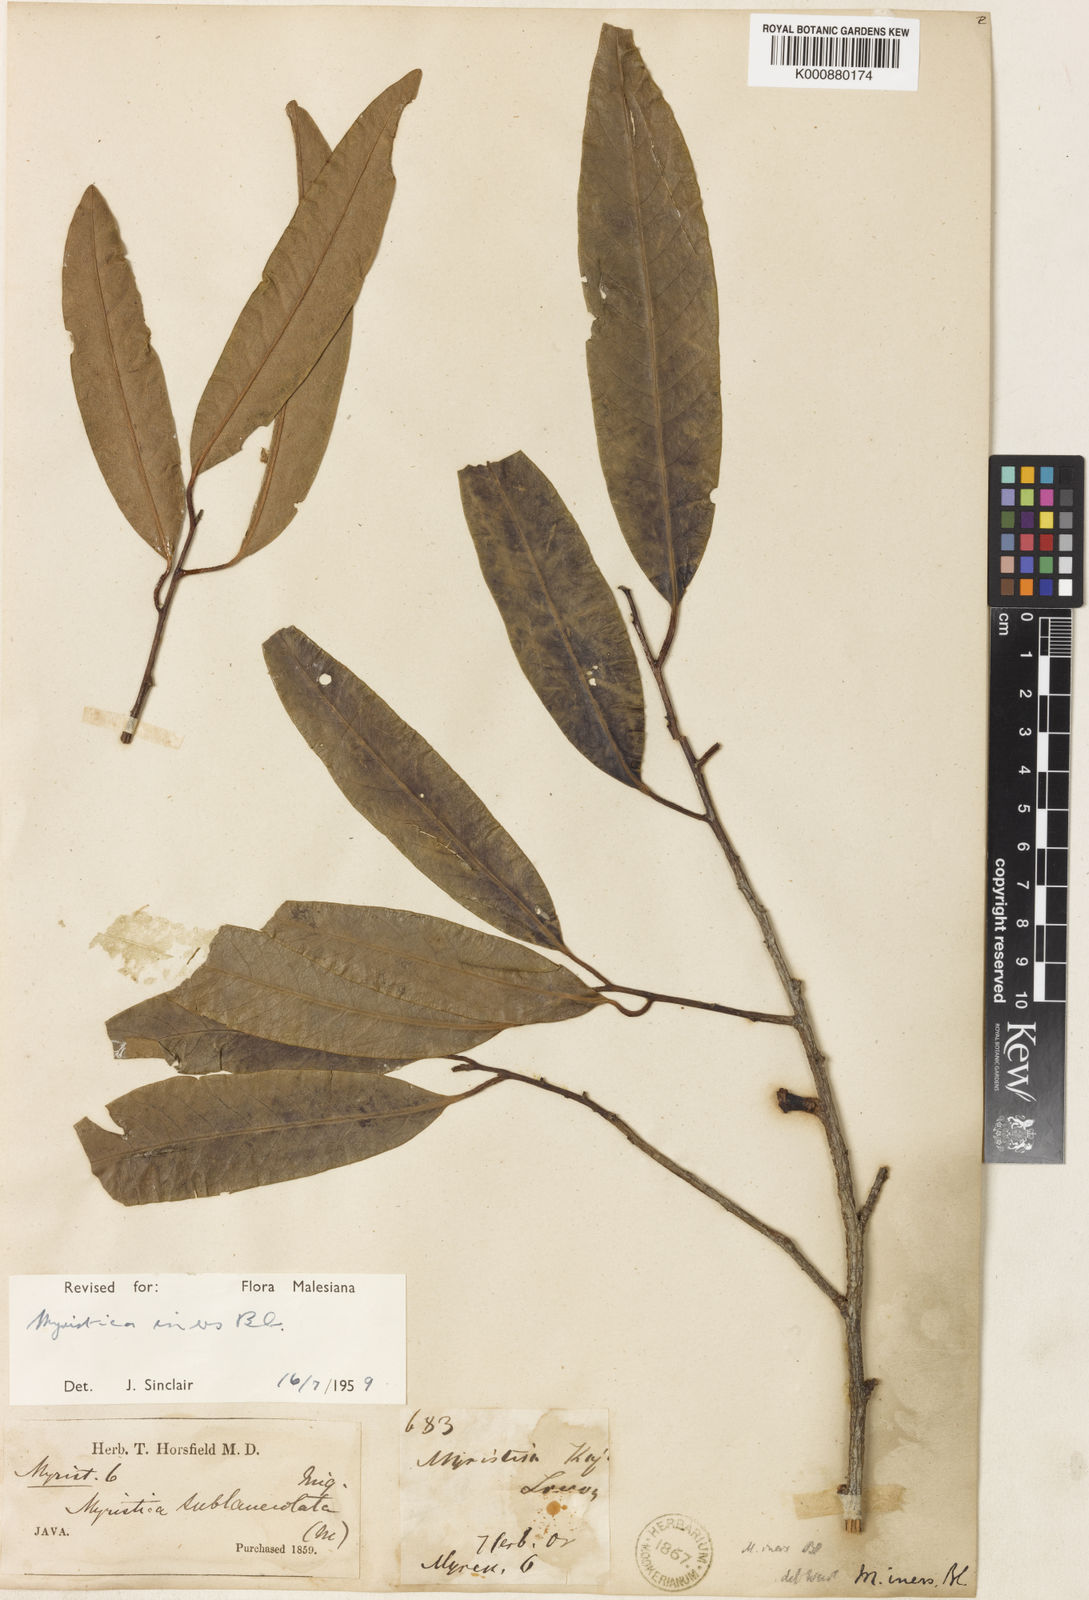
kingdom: Plantae
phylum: Tracheophyta
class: Magnoliopsida
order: Magnoliales
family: Myristicaceae
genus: Myristica
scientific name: Myristica iners
